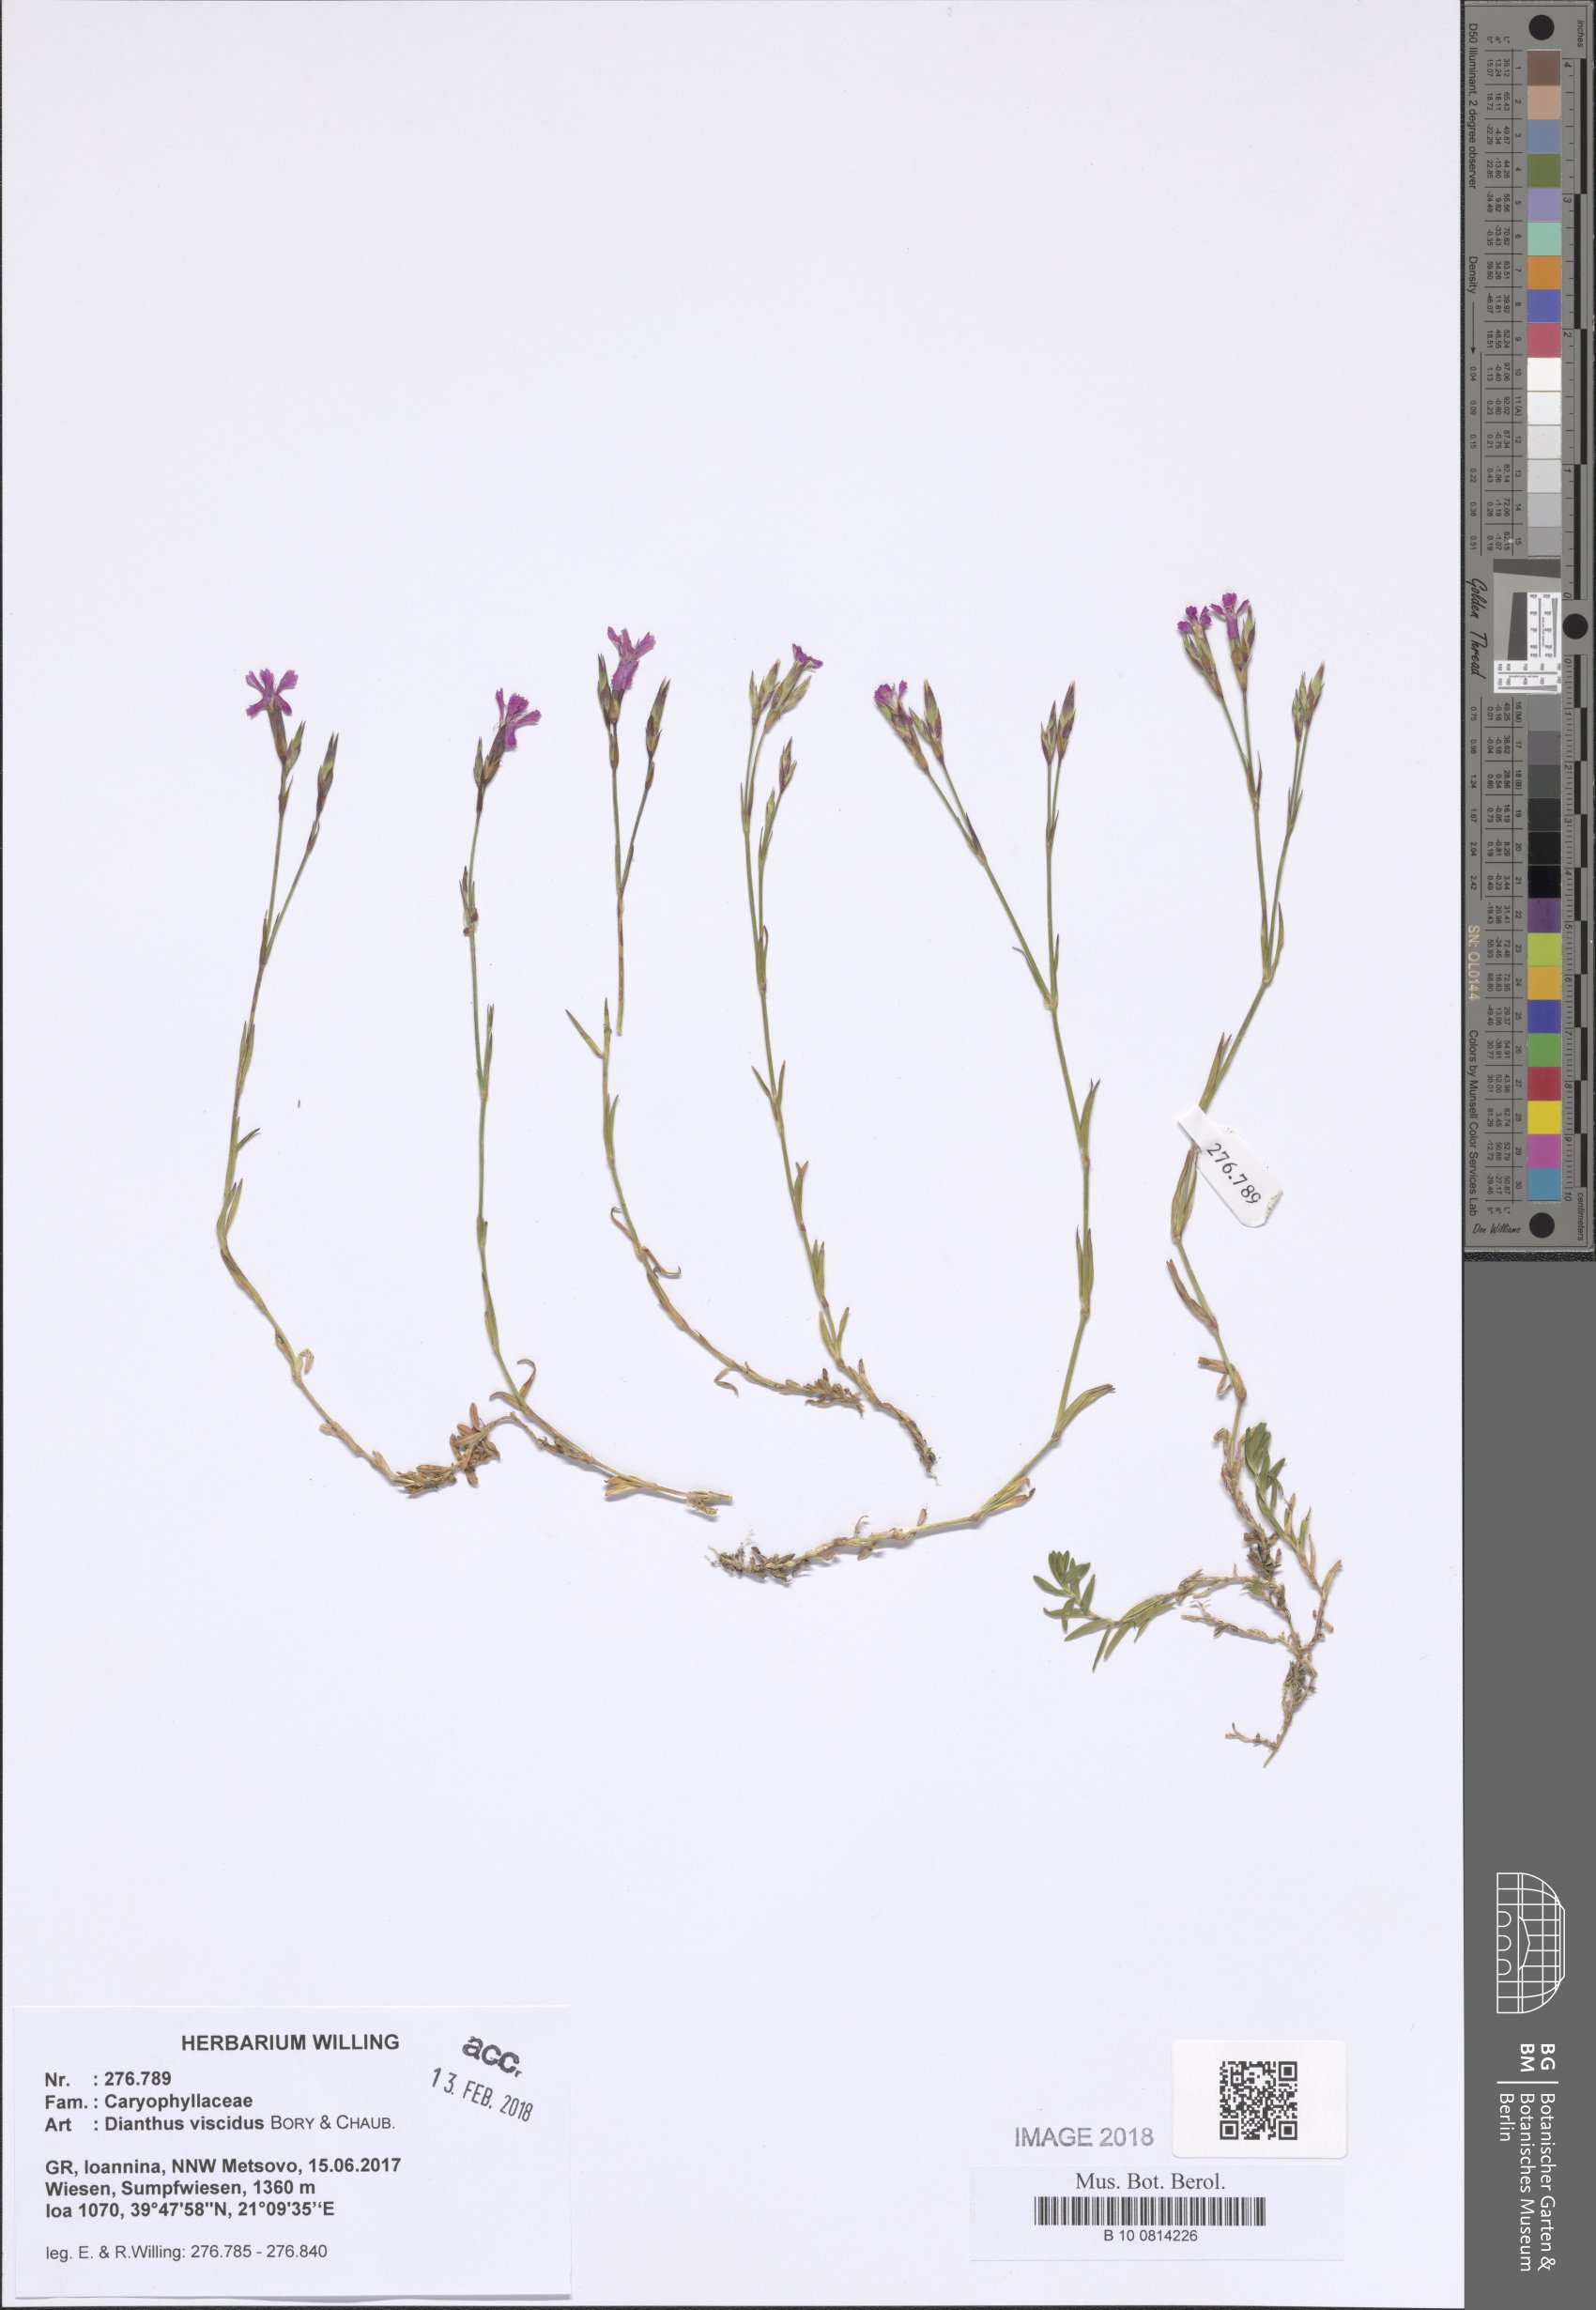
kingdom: Plantae
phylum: Tracheophyta
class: Magnoliopsida
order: Caryophyllales
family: Caryophyllaceae
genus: Dianthus
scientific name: Dianthus viscidus
